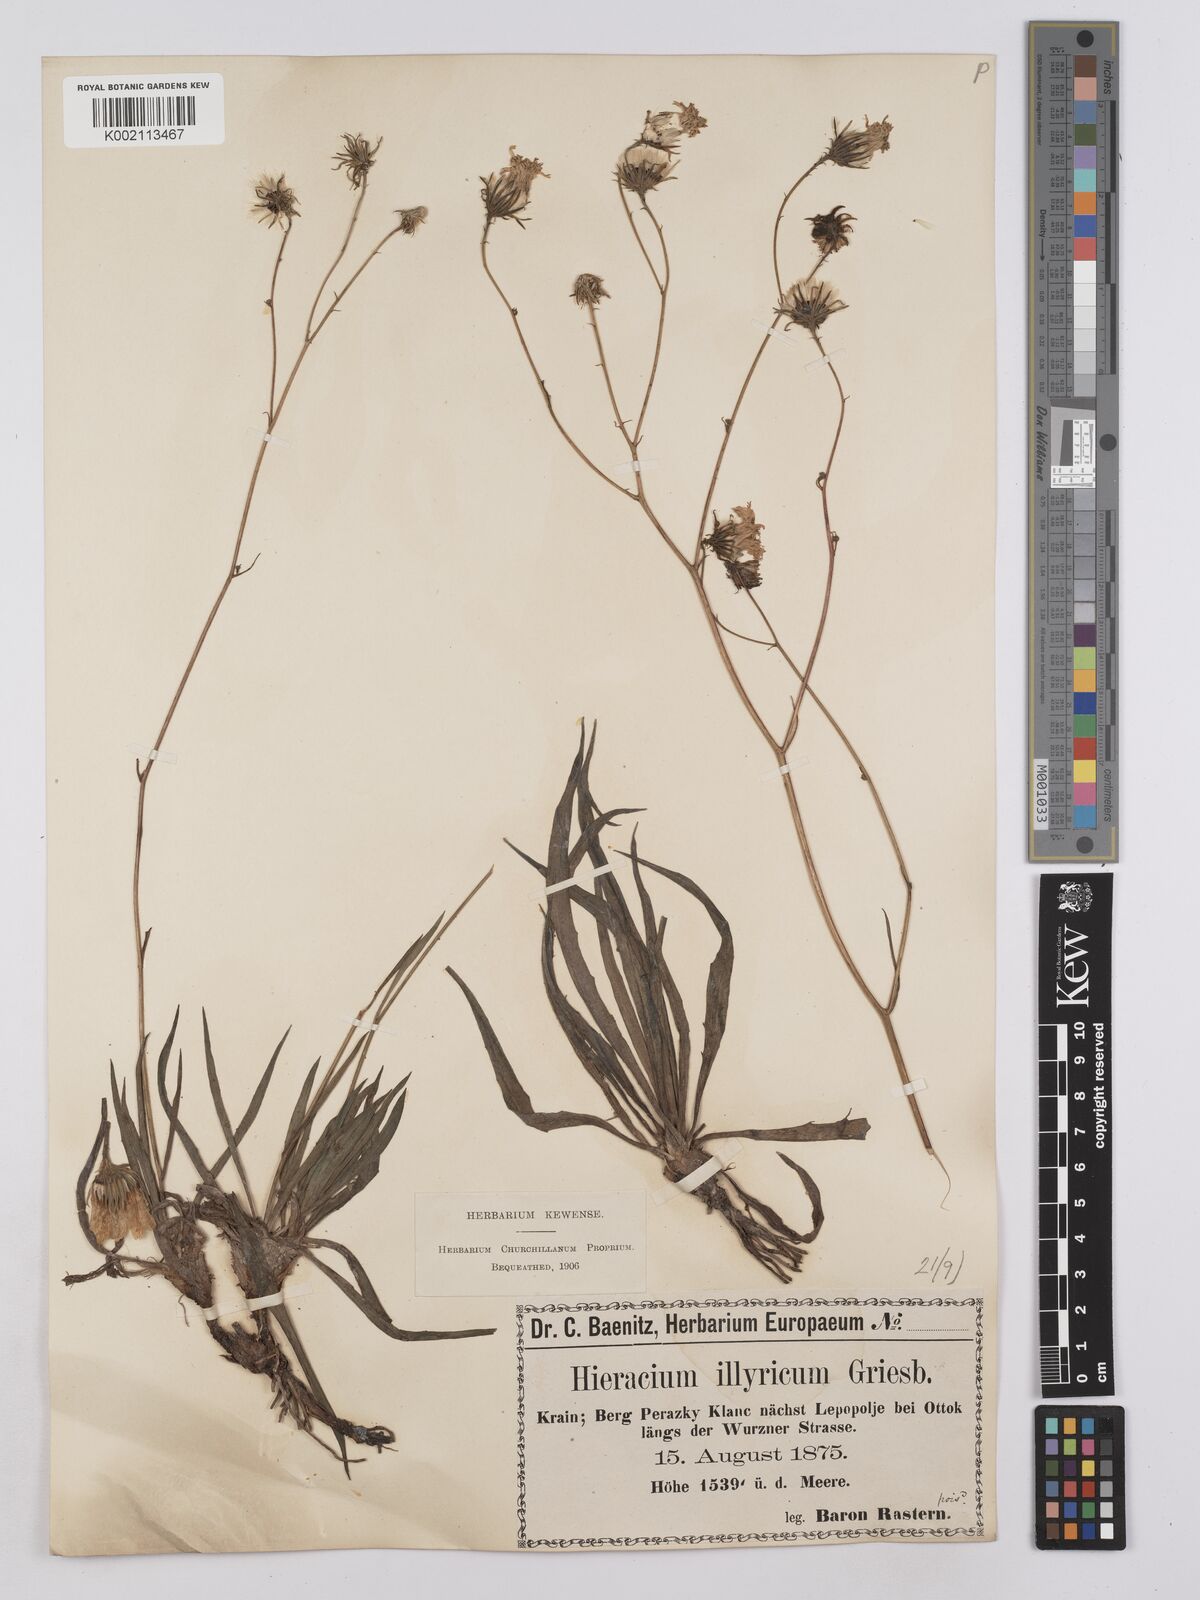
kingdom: Plantae
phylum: Tracheophyta
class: Magnoliopsida
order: Asterales
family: Asteraceae
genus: Hieracium
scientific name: Hieracium calcareum
